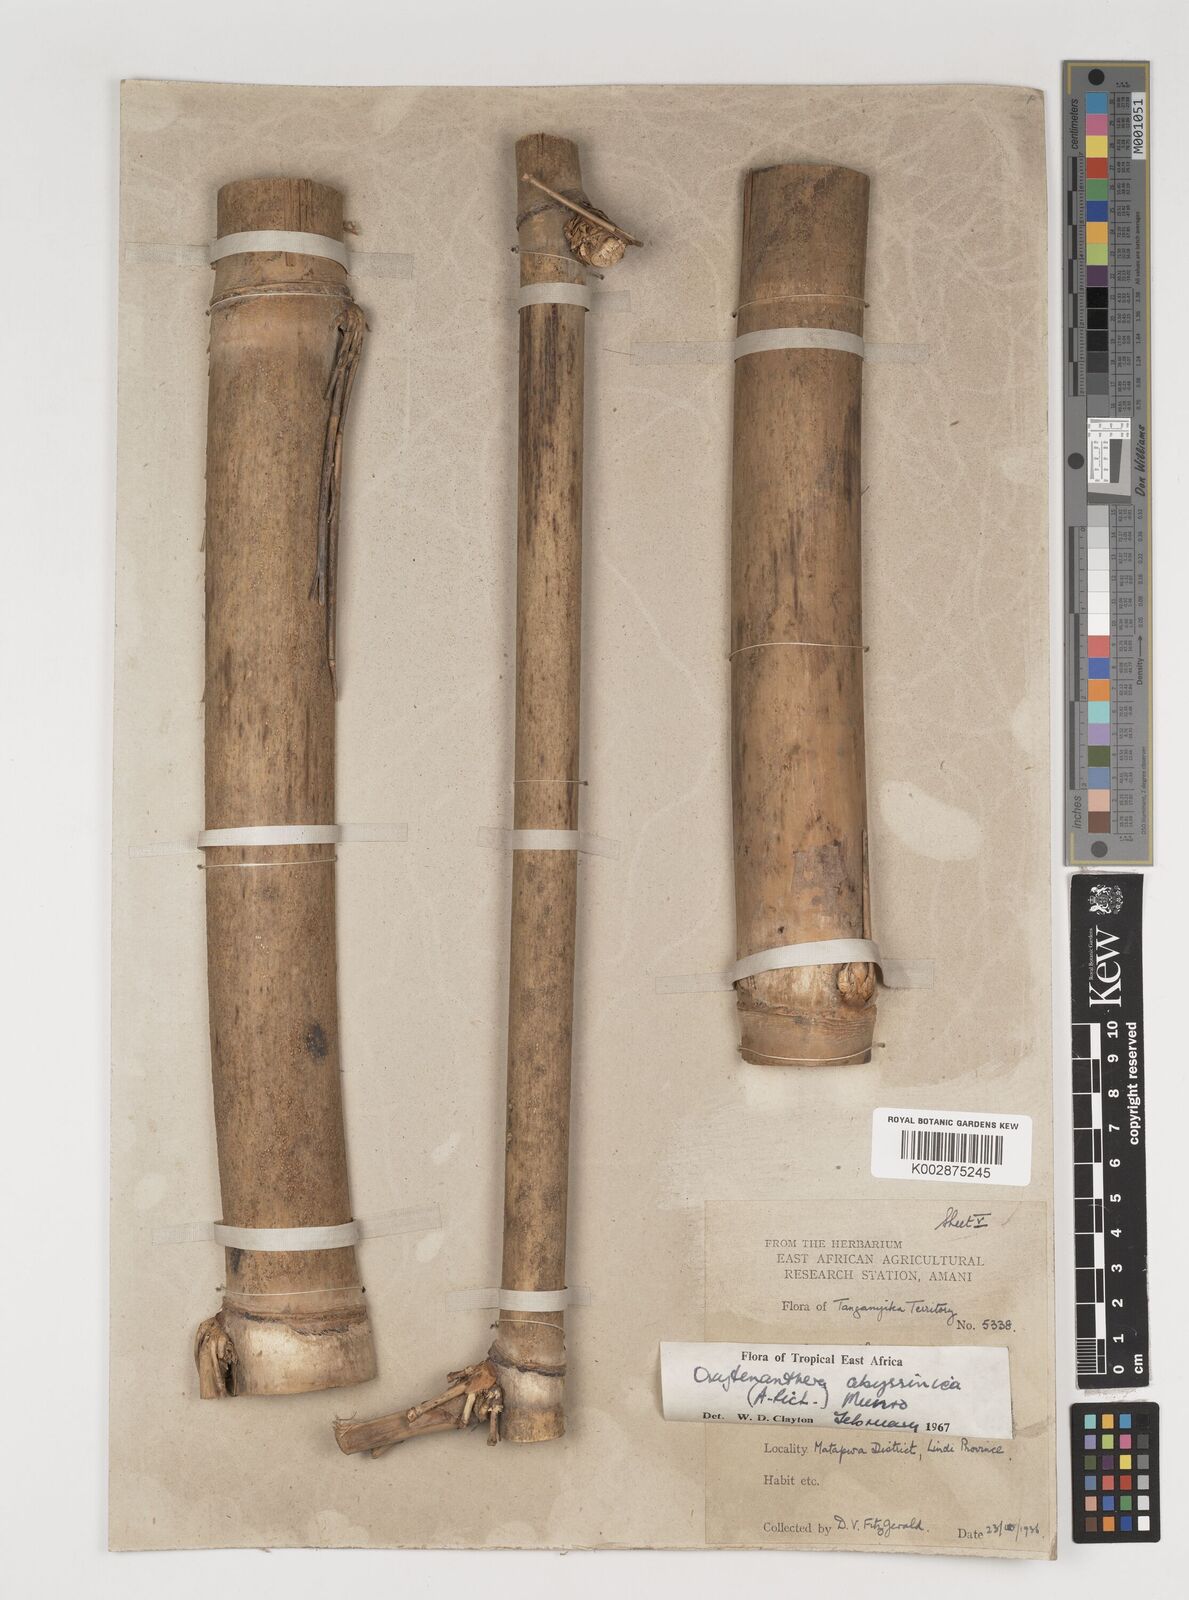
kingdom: Plantae
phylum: Tracheophyta
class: Liliopsida
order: Poales
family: Poaceae
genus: Oxytenanthera
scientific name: Oxytenanthera
